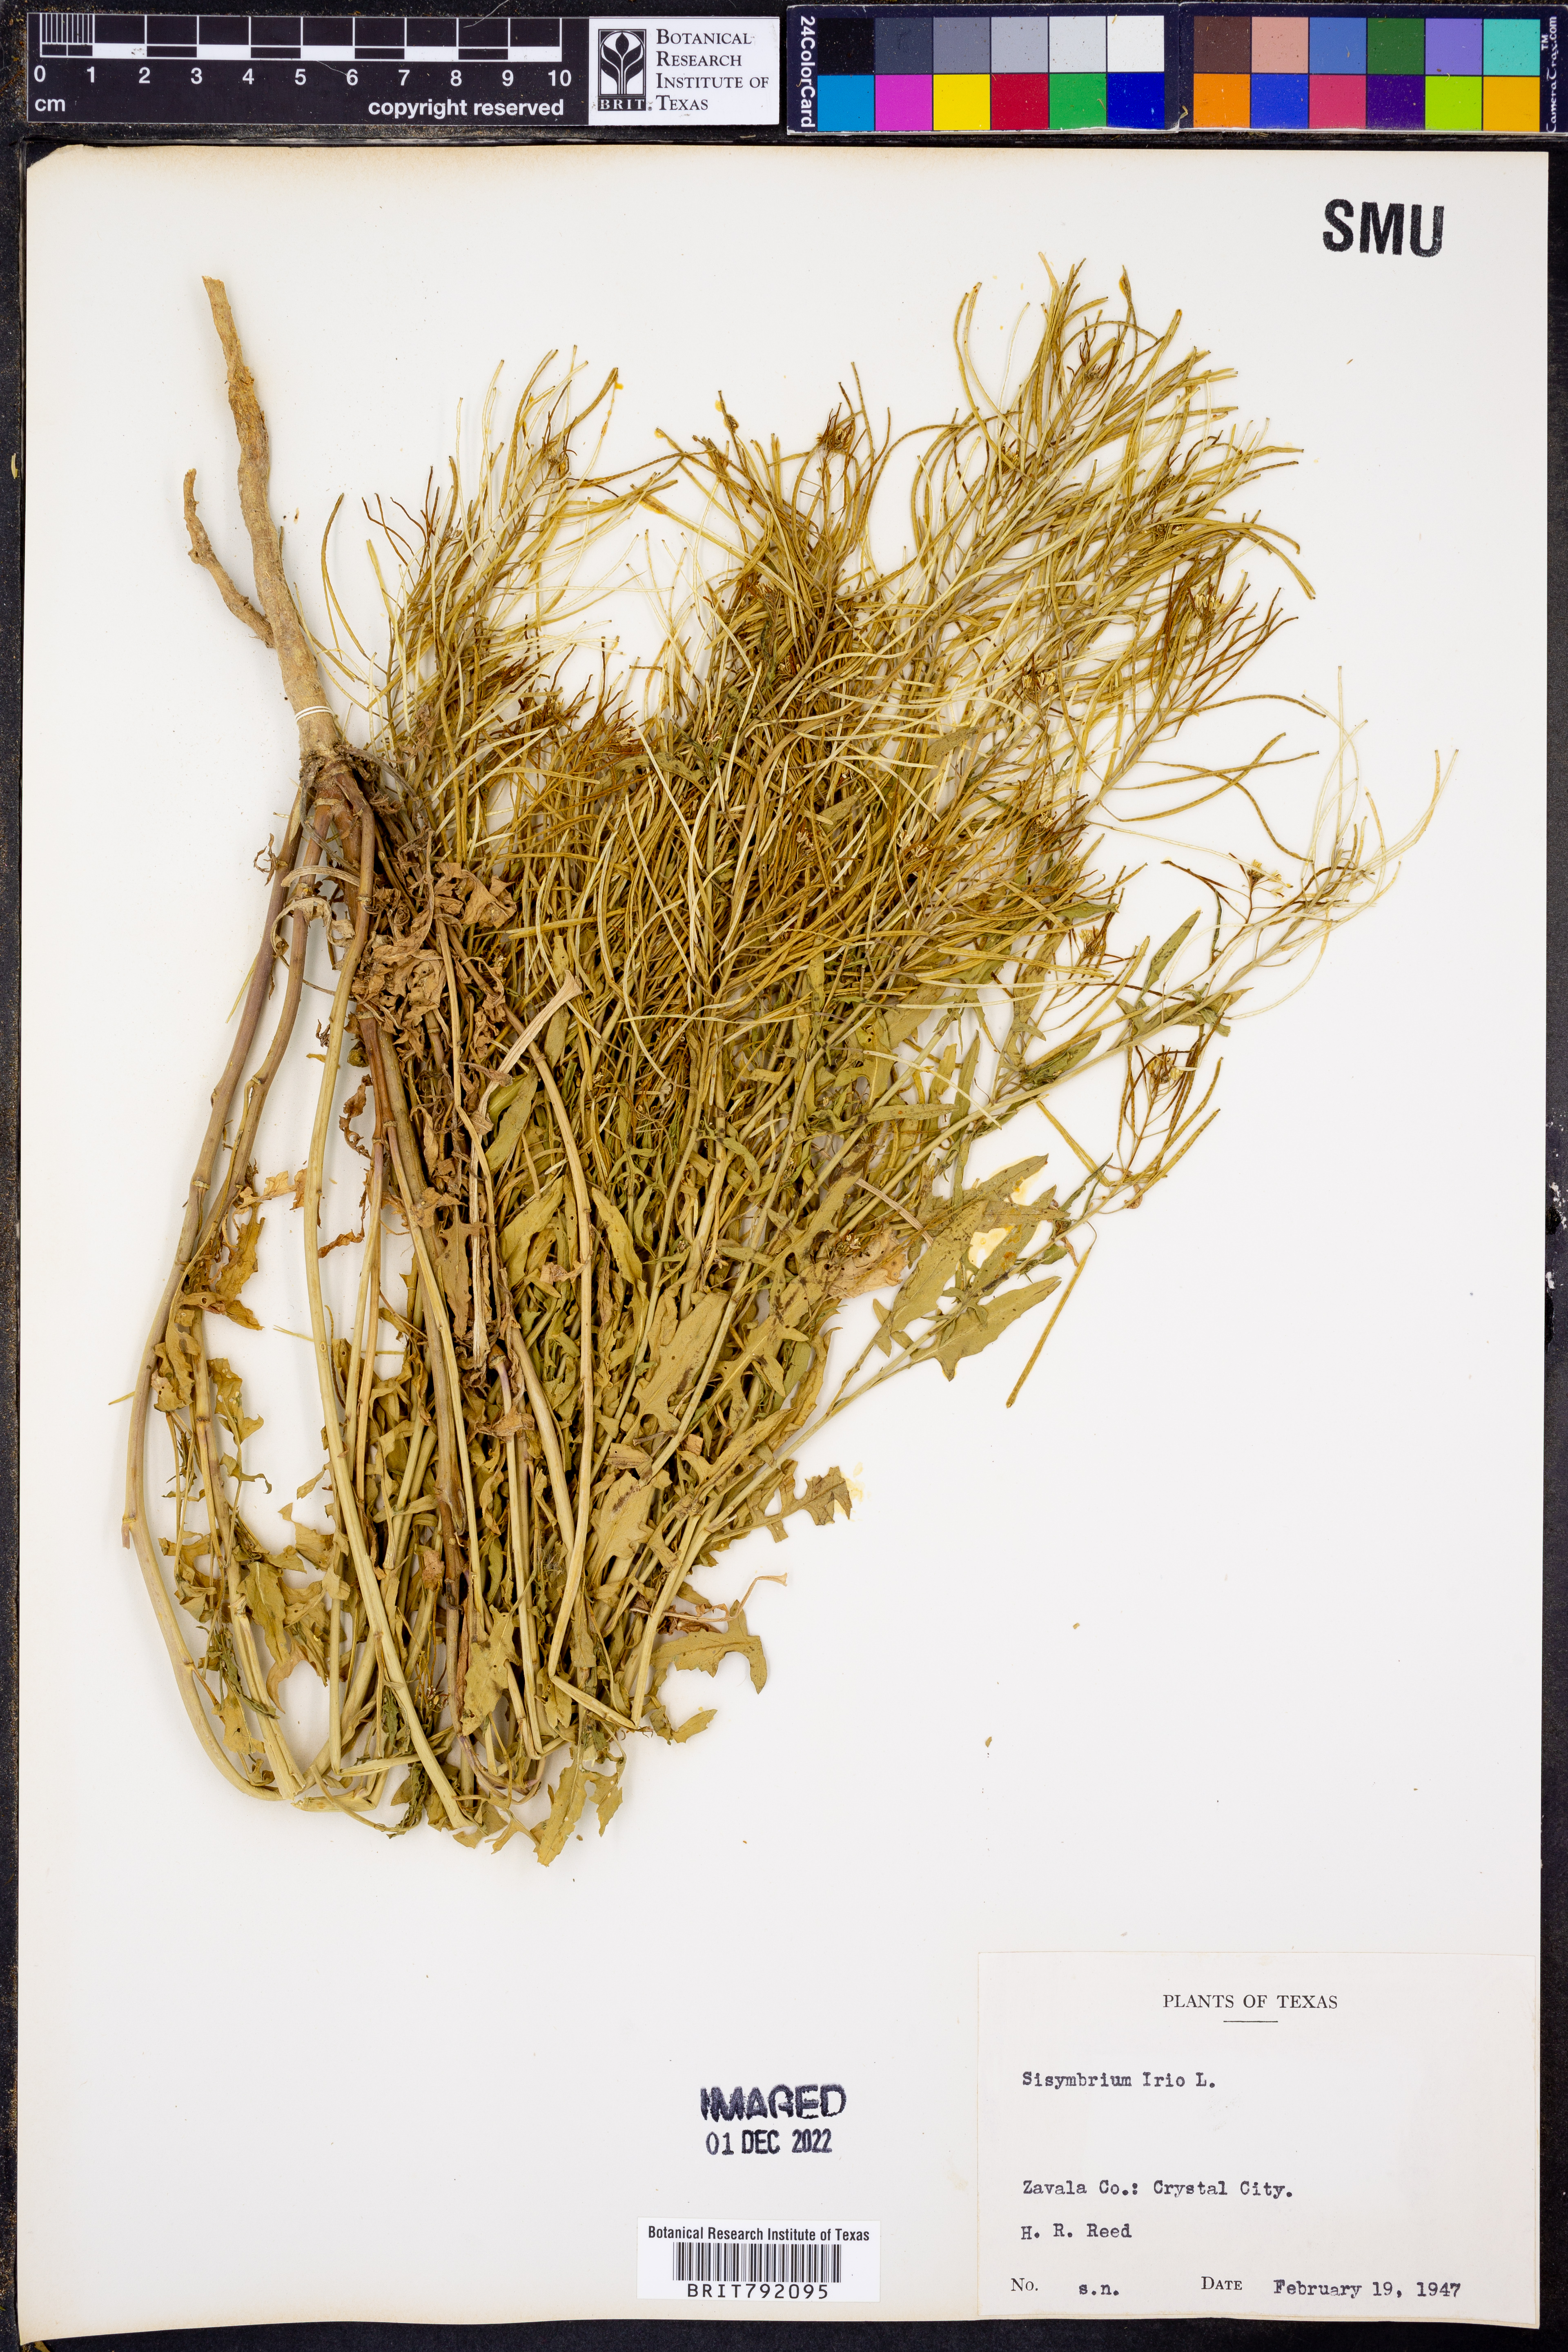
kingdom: Plantae
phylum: Tracheophyta
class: Magnoliopsida
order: Brassicales
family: Brassicaceae
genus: Sisymbrium
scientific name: Sisymbrium irio
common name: London rocket
